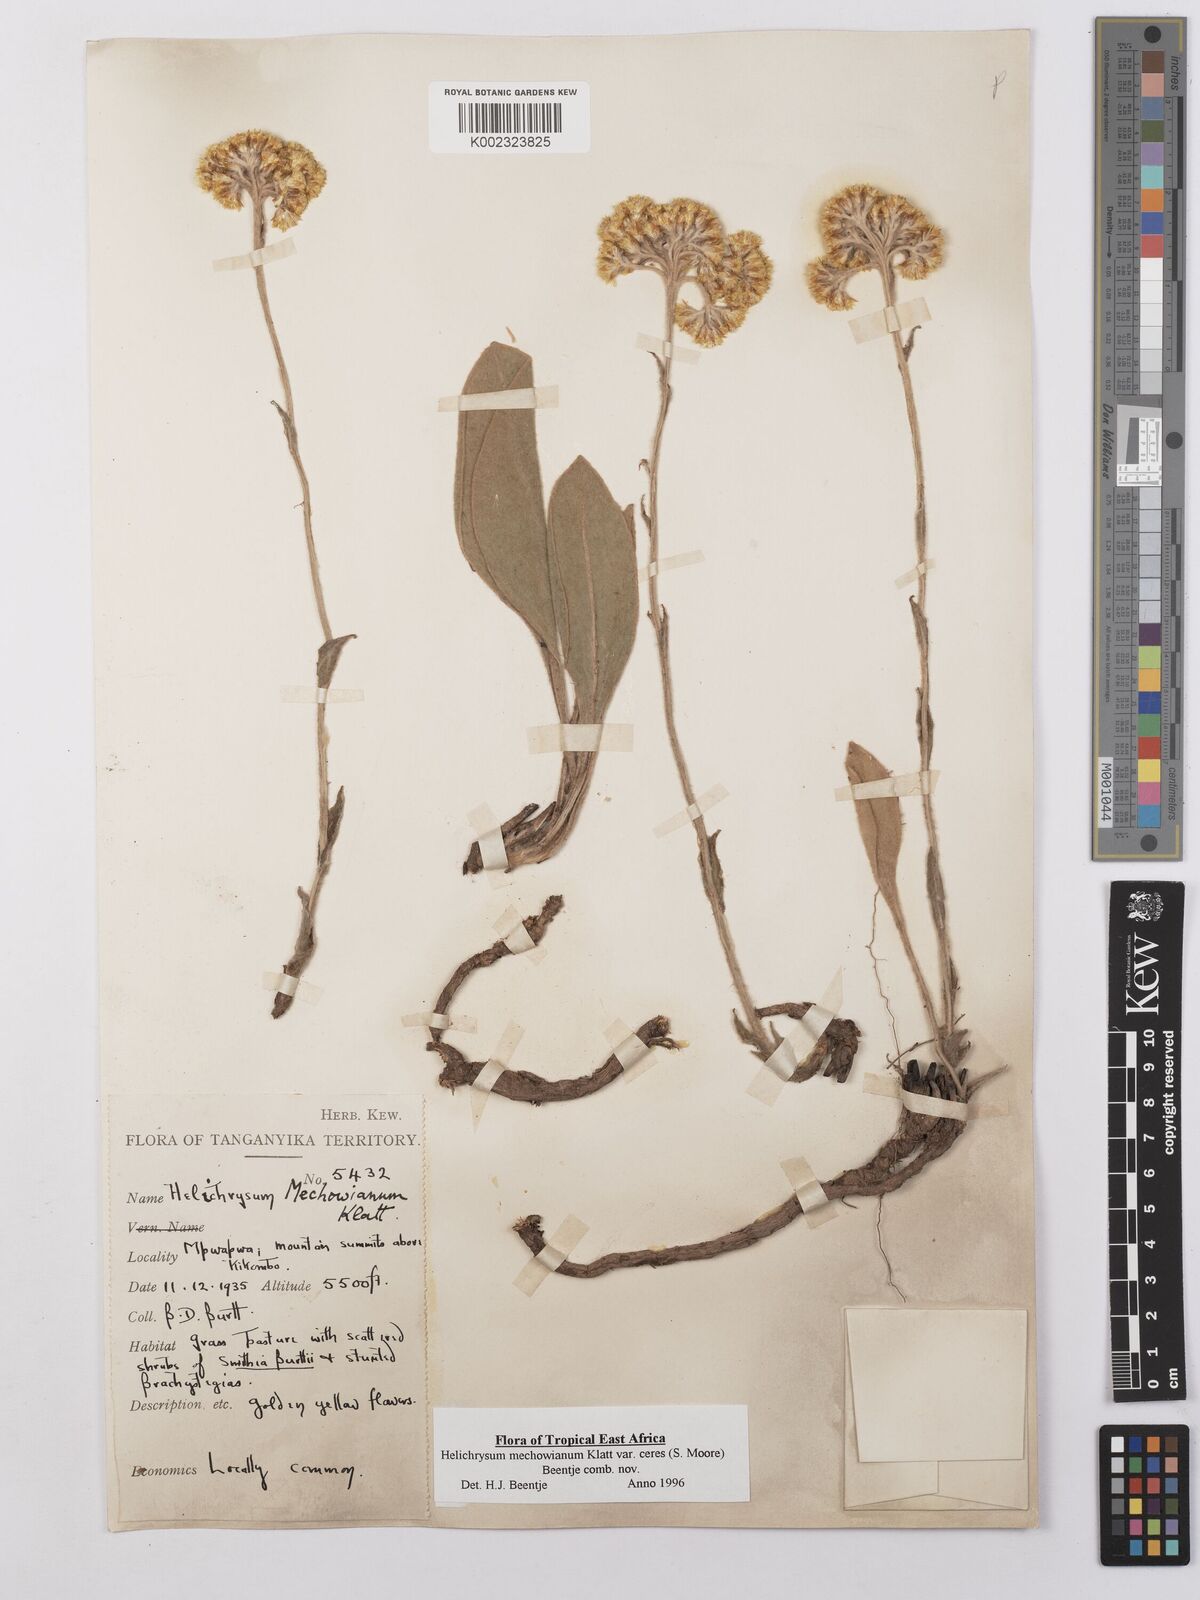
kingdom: Plantae
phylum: Tracheophyta
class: Magnoliopsida
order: Asterales
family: Asteraceae
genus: Helichrysum
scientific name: Helichrysum mechowianum
